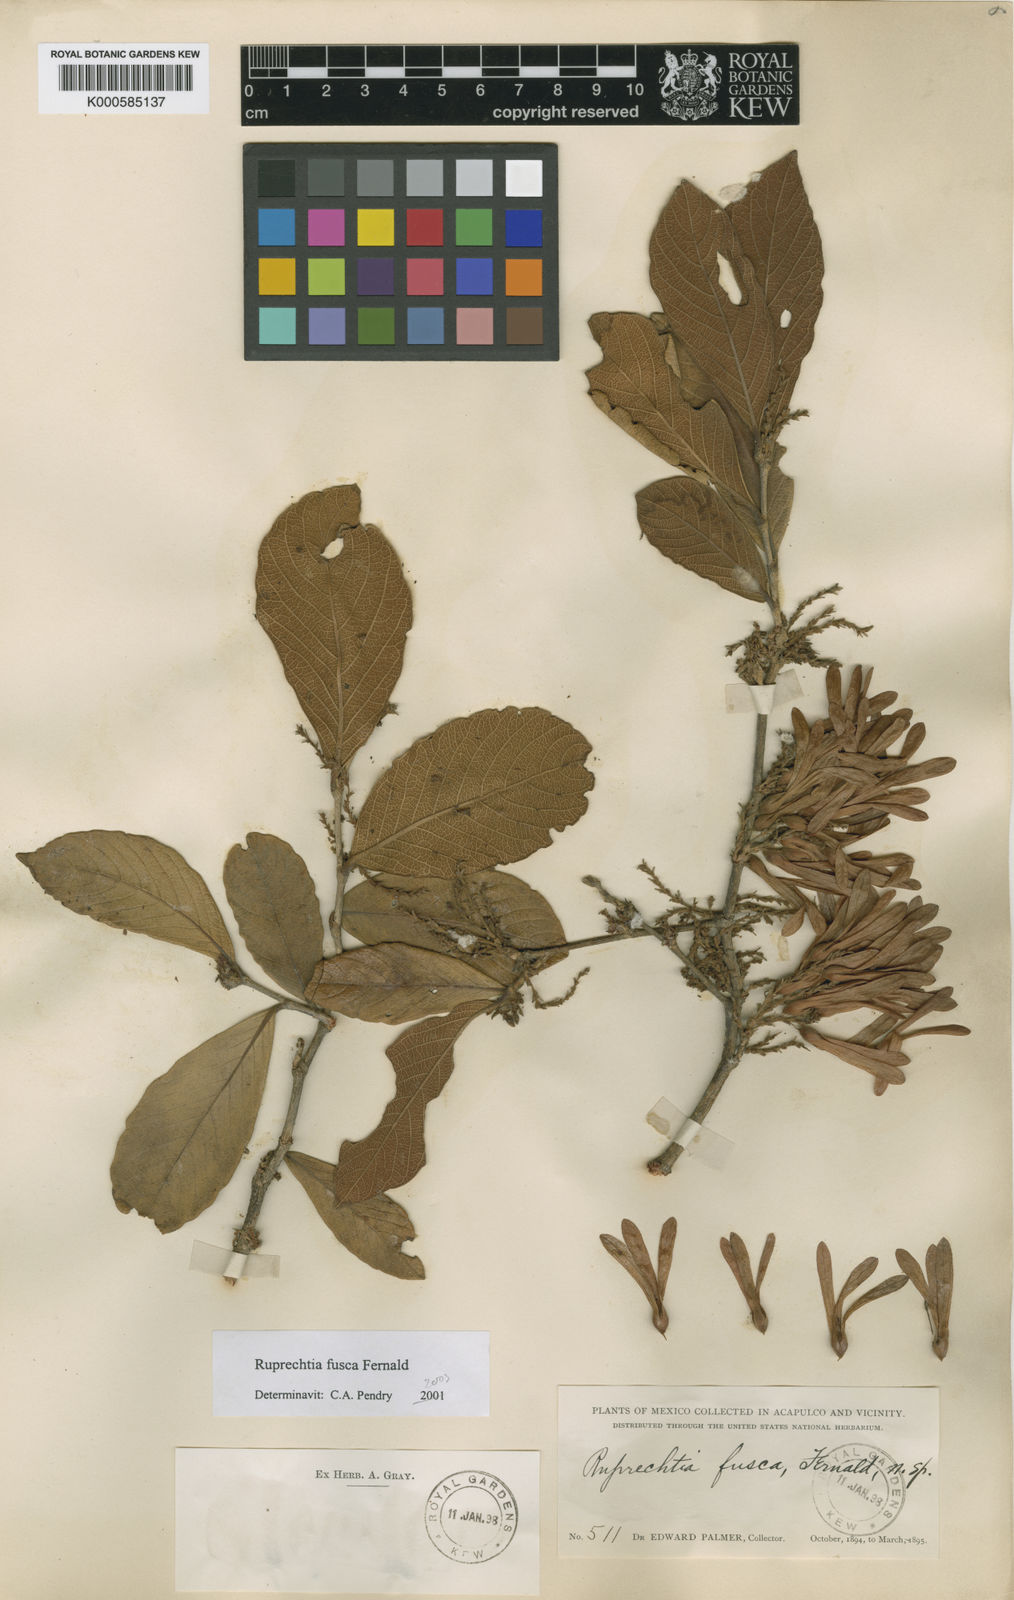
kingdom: Plantae
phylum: Tracheophyta
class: Magnoliopsida
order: Caryophyllales
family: Polygonaceae
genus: Ruprechtia
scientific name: Ruprechtia fusca
